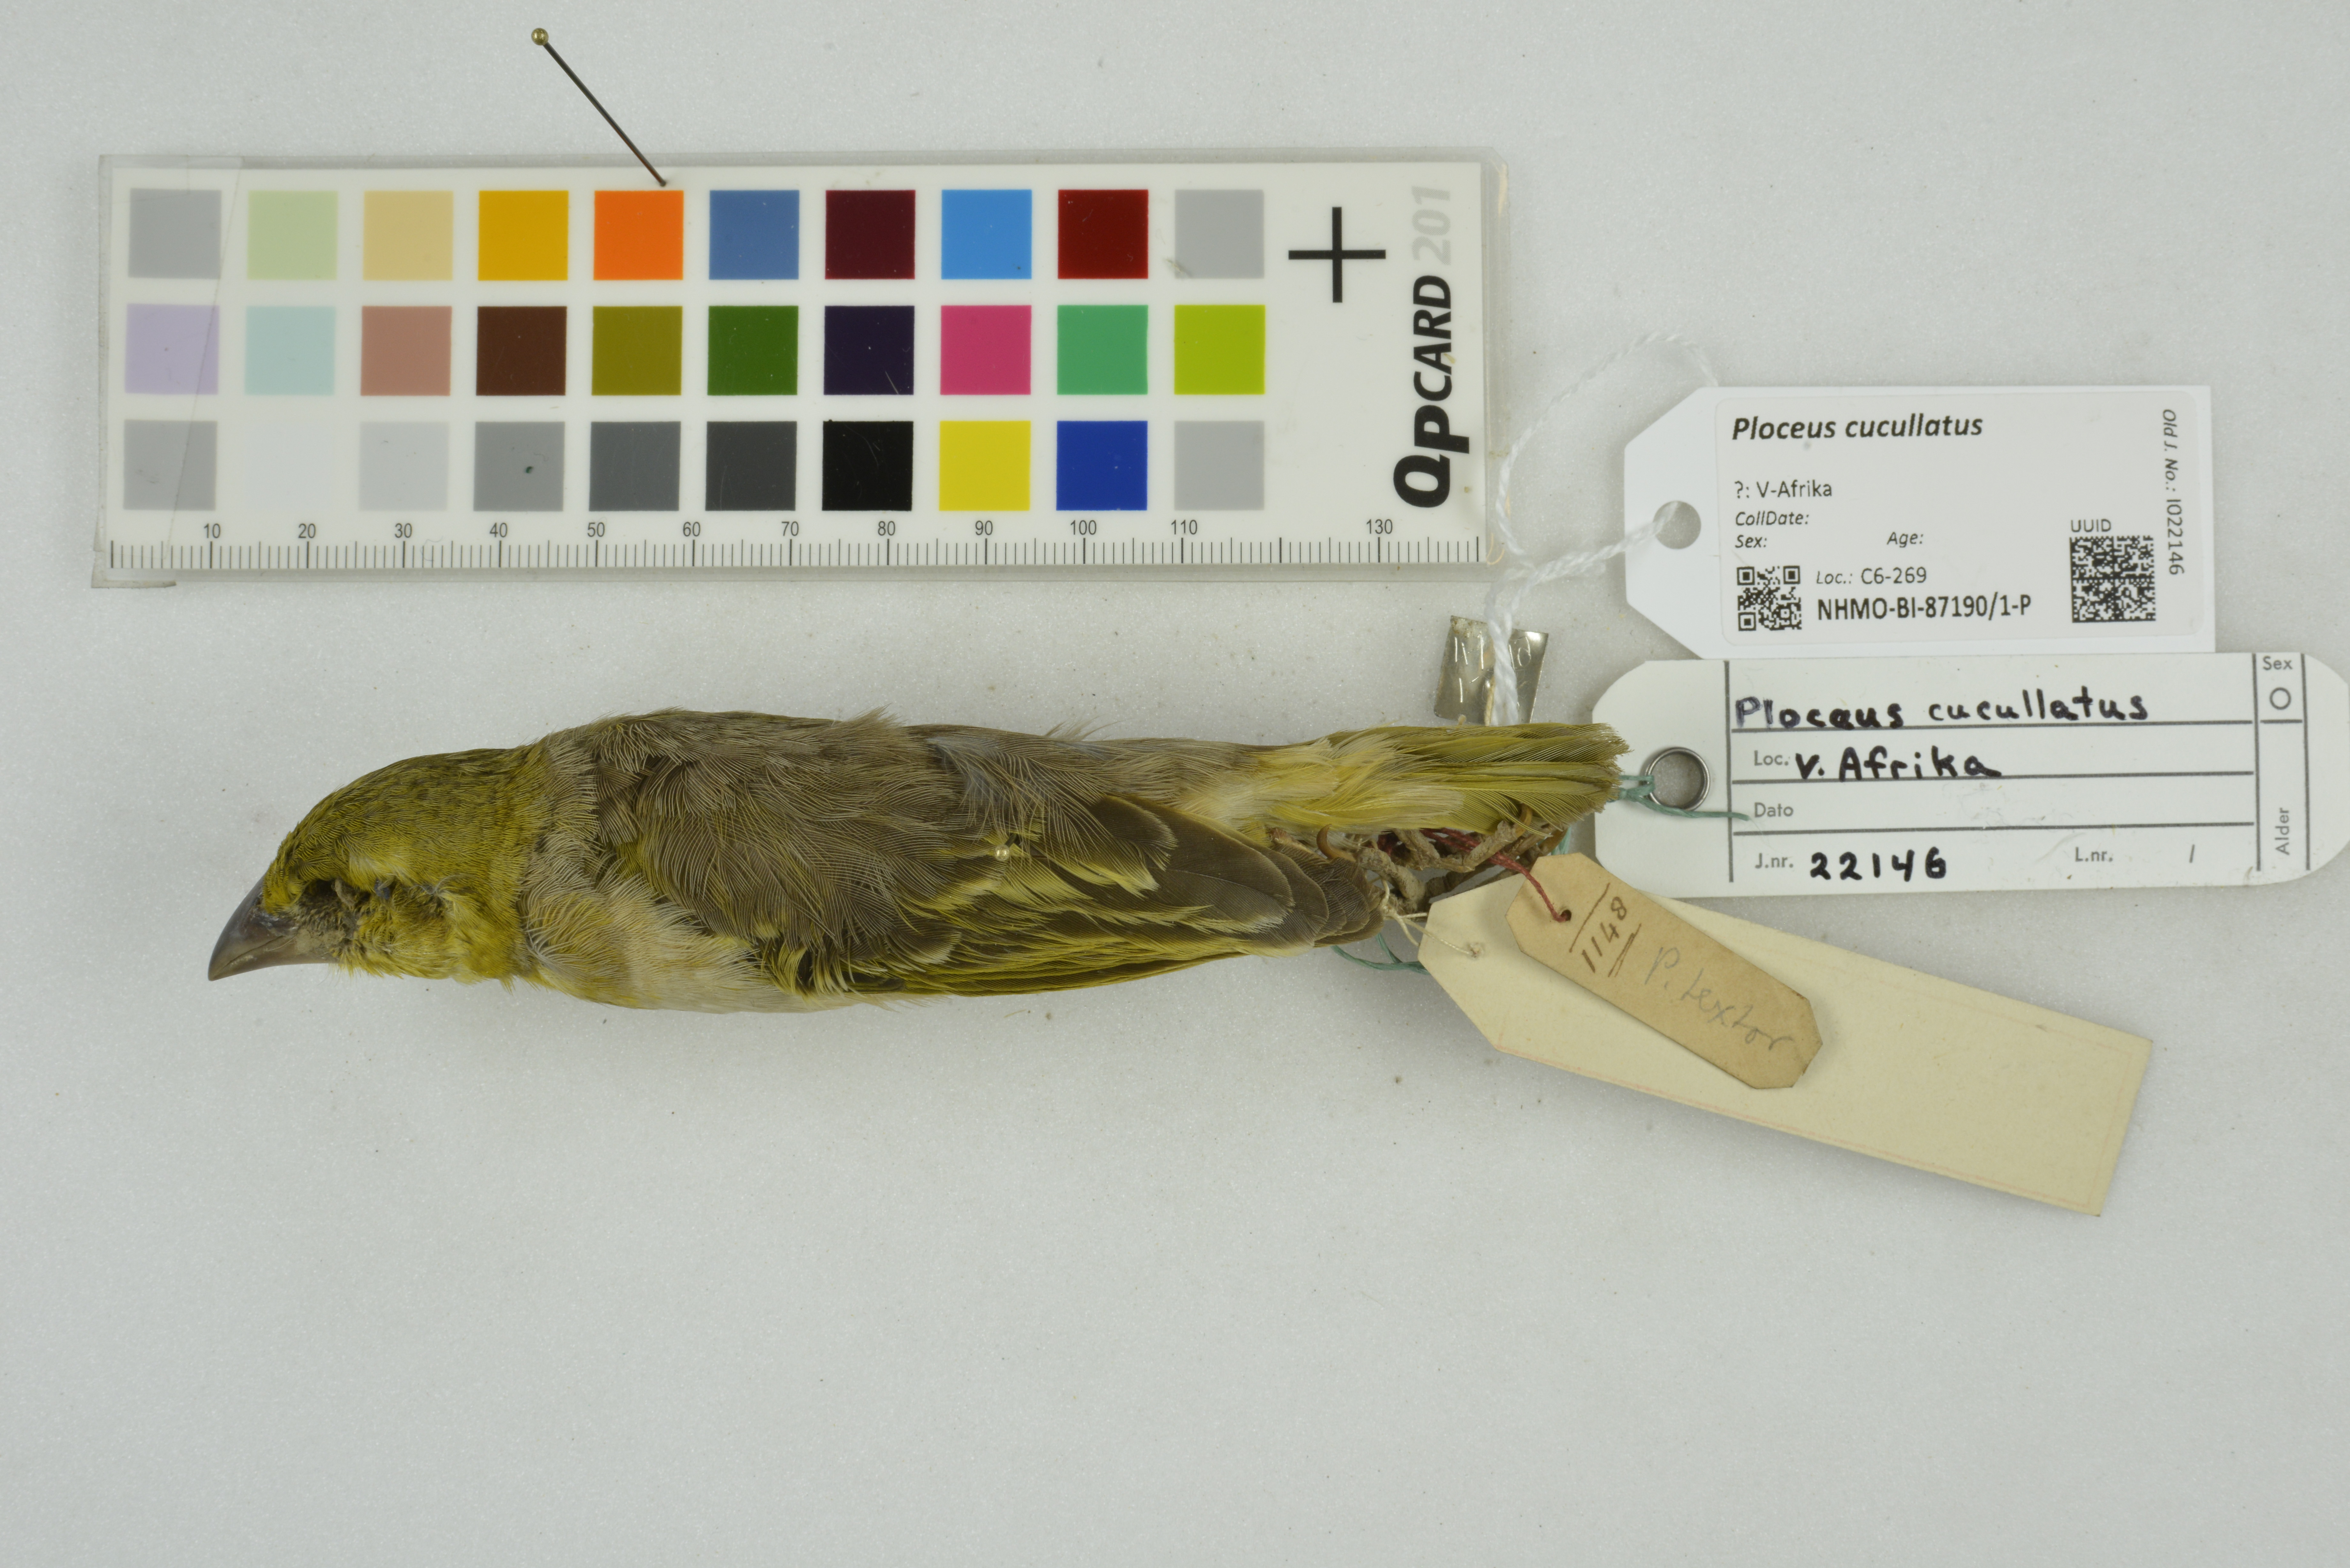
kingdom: Animalia
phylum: Chordata
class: Aves
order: Passeriformes
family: Ploceidae
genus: Ploceus
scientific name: Ploceus cucullatus
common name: Village weaver
